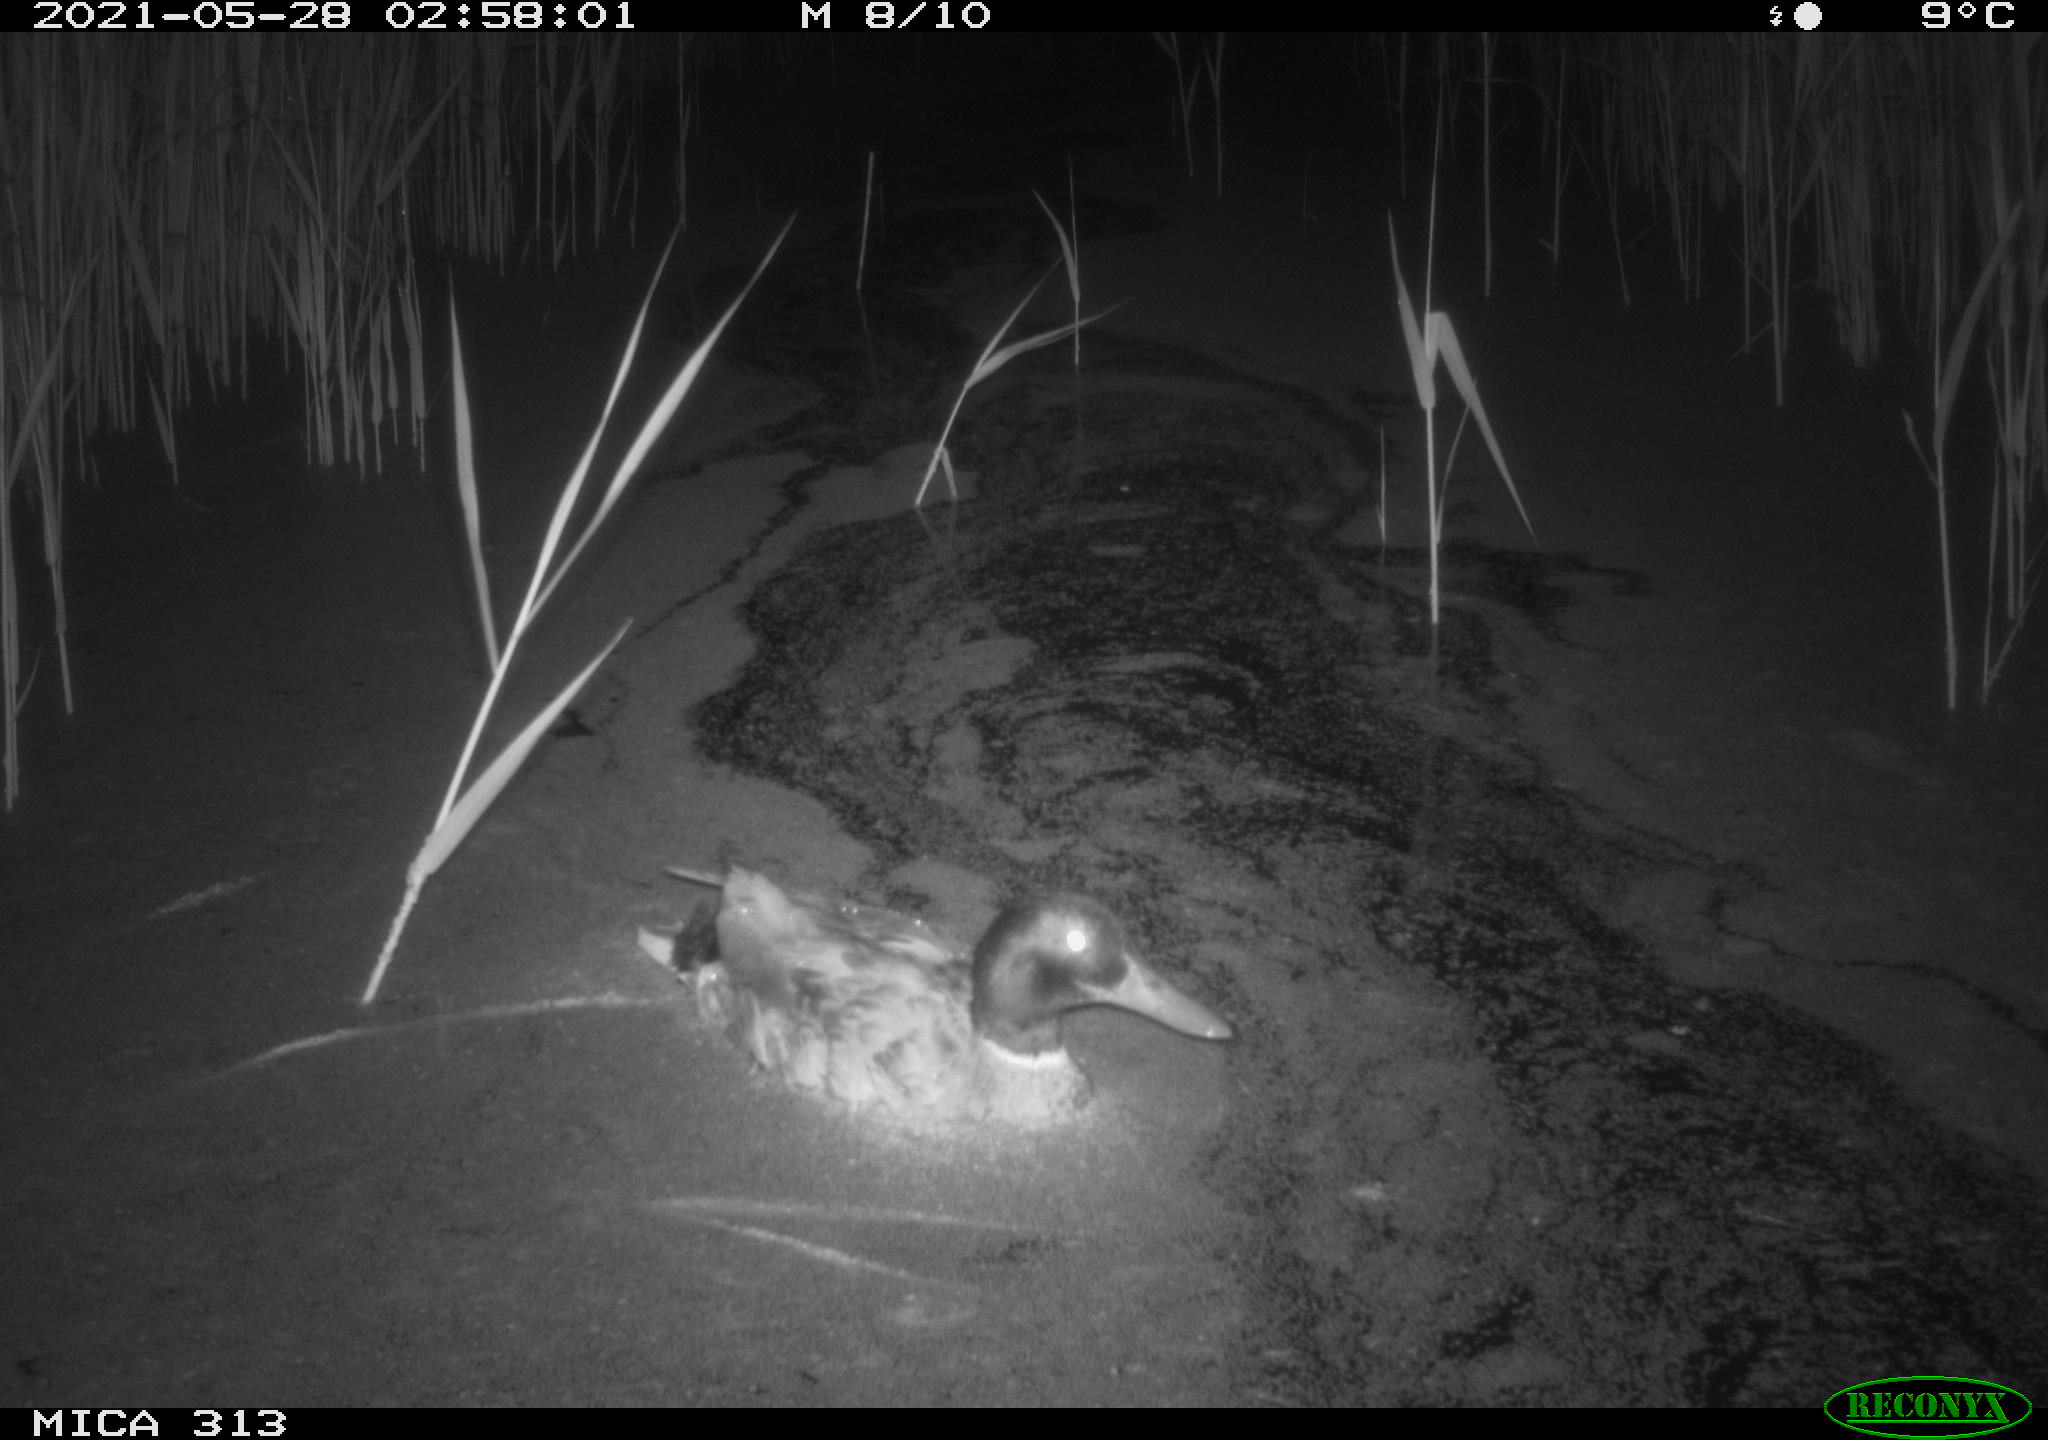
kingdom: Animalia
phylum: Chordata
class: Aves
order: Anseriformes
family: Anatidae
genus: Anas
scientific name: Anas platyrhynchos
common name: Mallard
